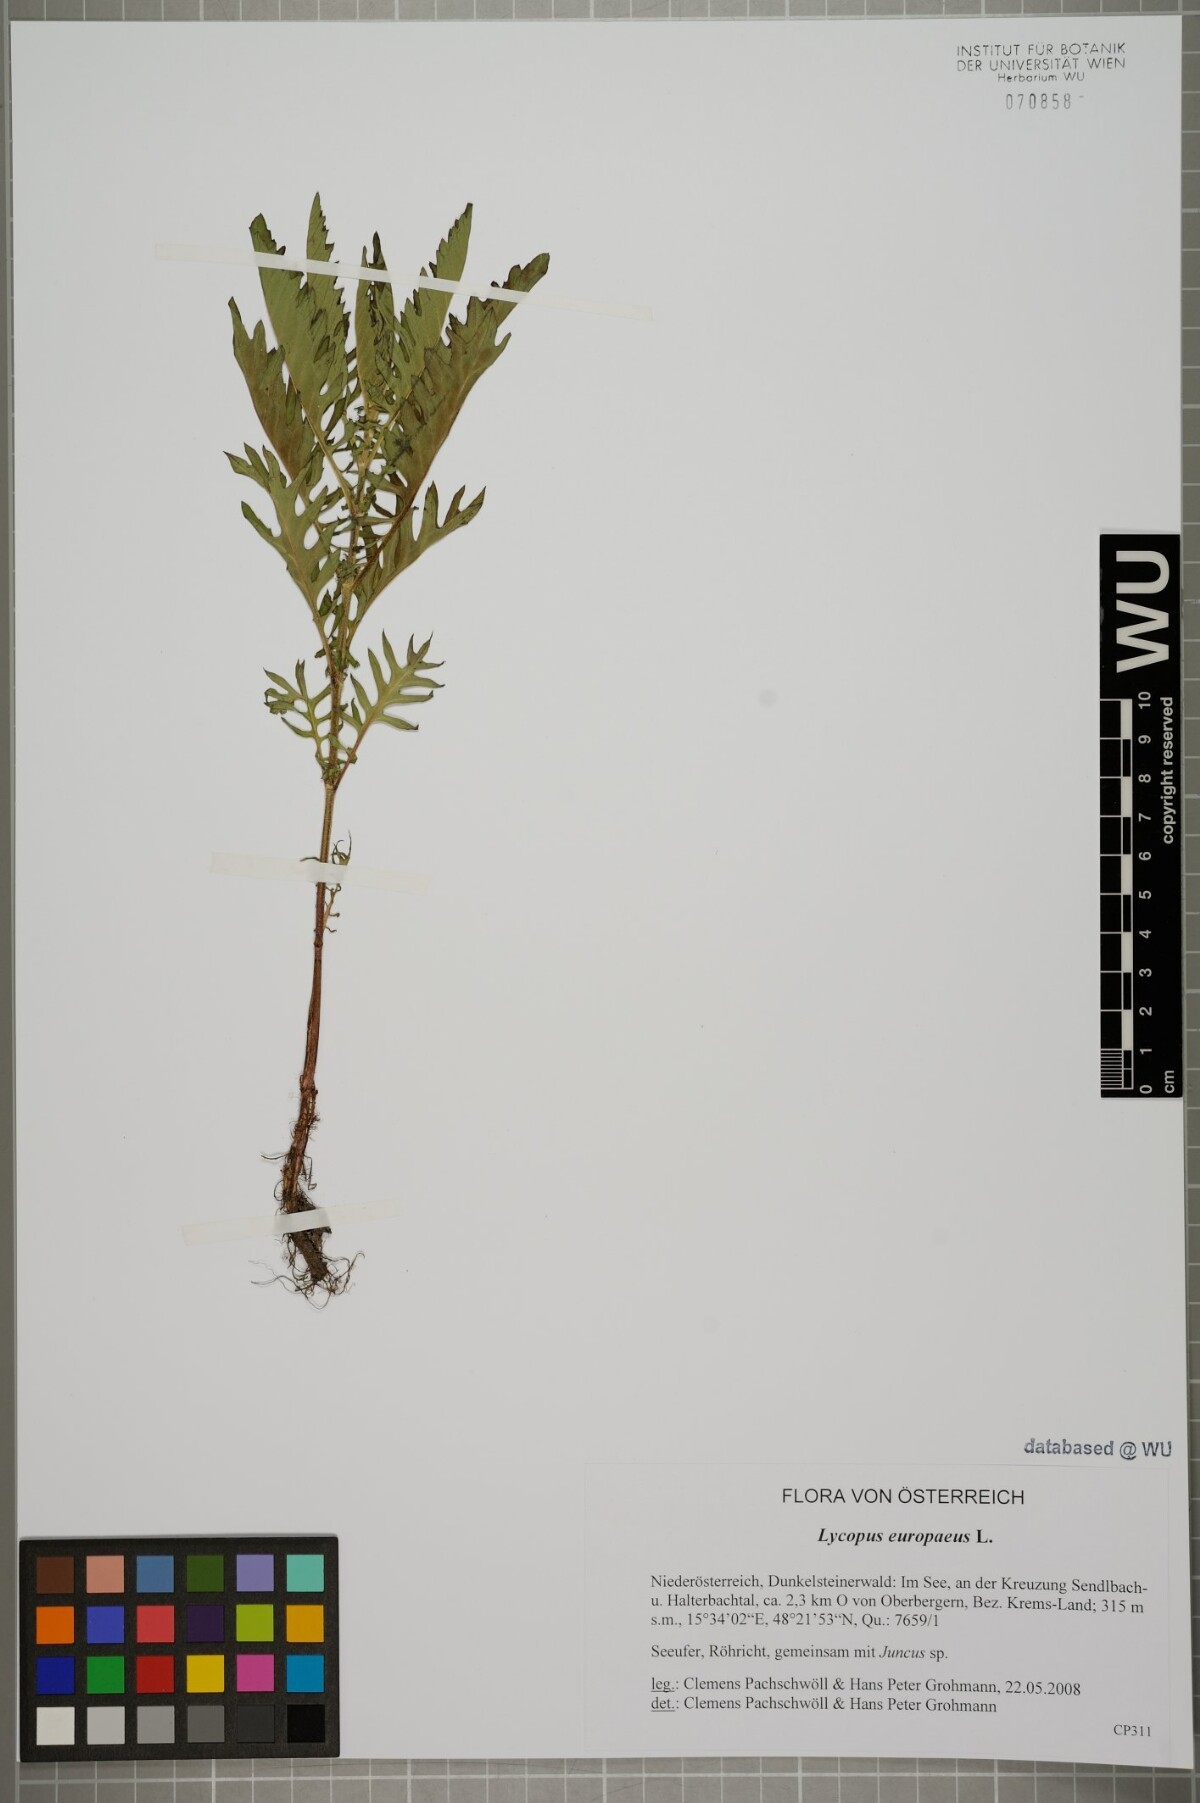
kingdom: Plantae
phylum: Tracheophyta
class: Magnoliopsida
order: Lamiales
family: Lamiaceae
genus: Lycopus
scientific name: Lycopus europaeus
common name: European bugleweed
